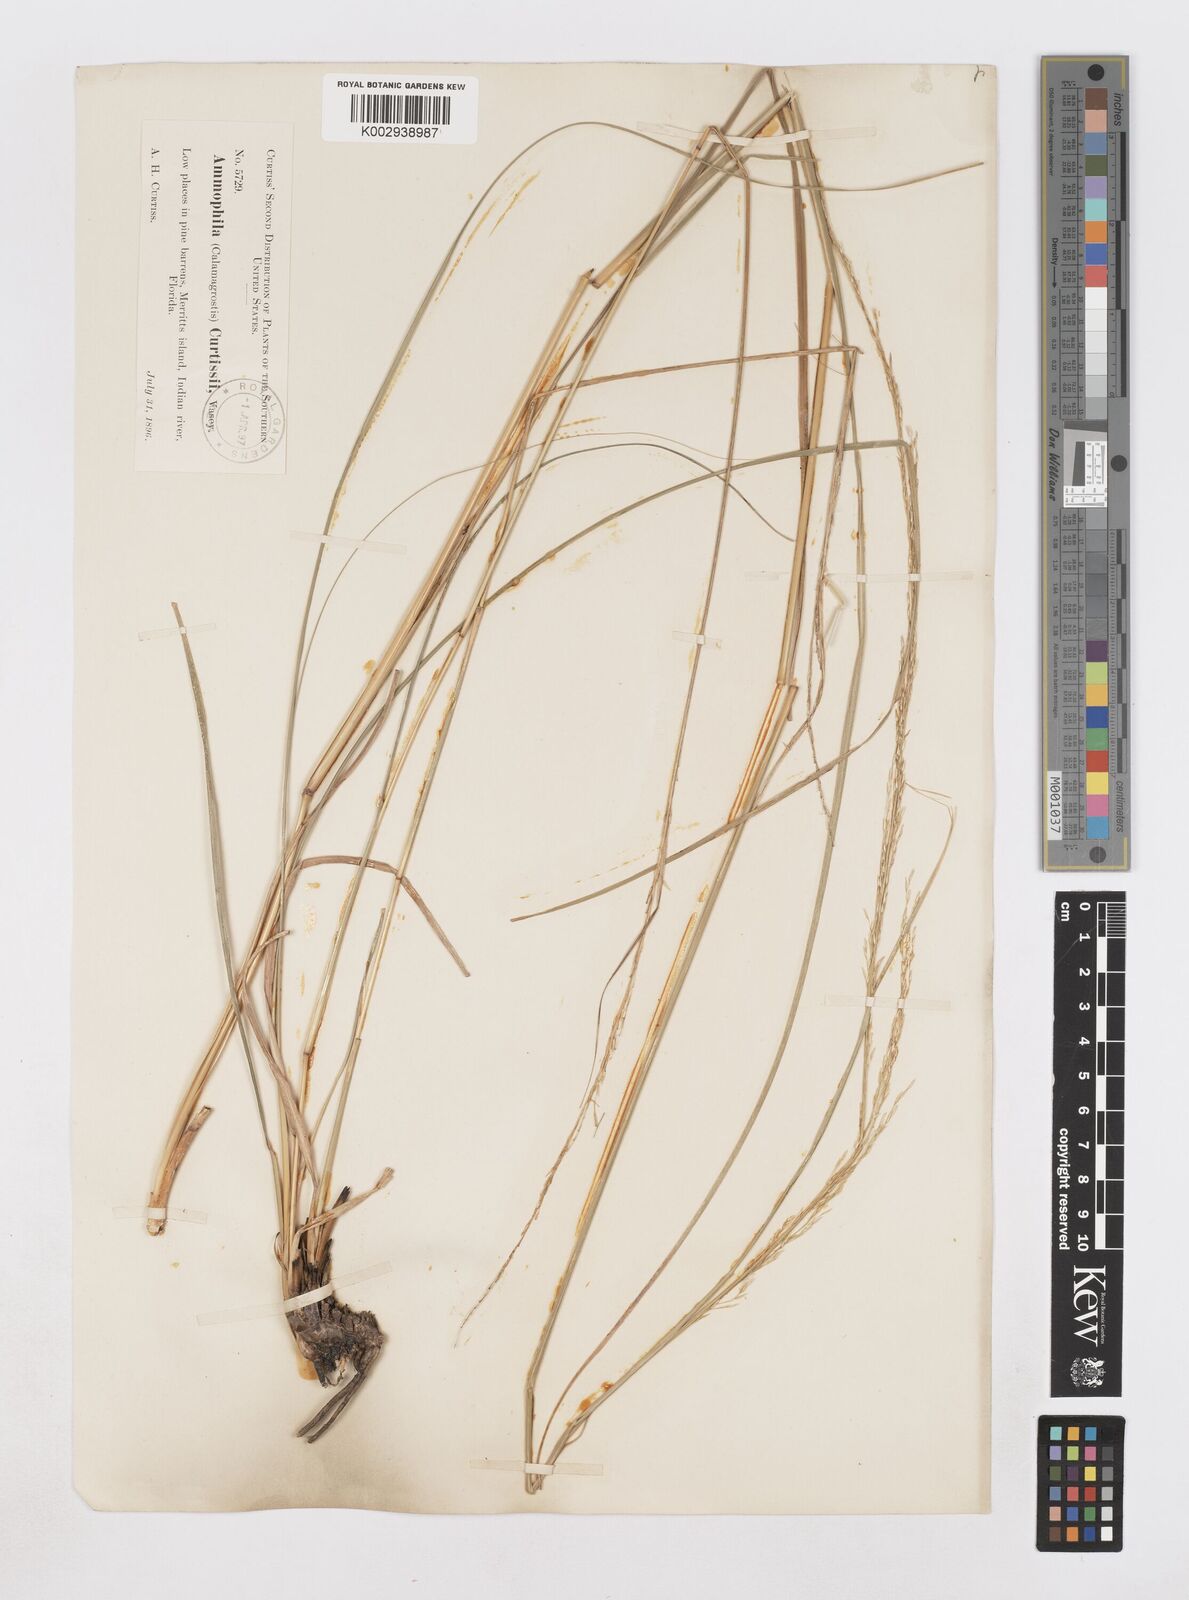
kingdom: Plantae
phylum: Tracheophyta
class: Liliopsida
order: Poales
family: Poaceae
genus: Sporobolus
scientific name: Sporobolus vaseyi
